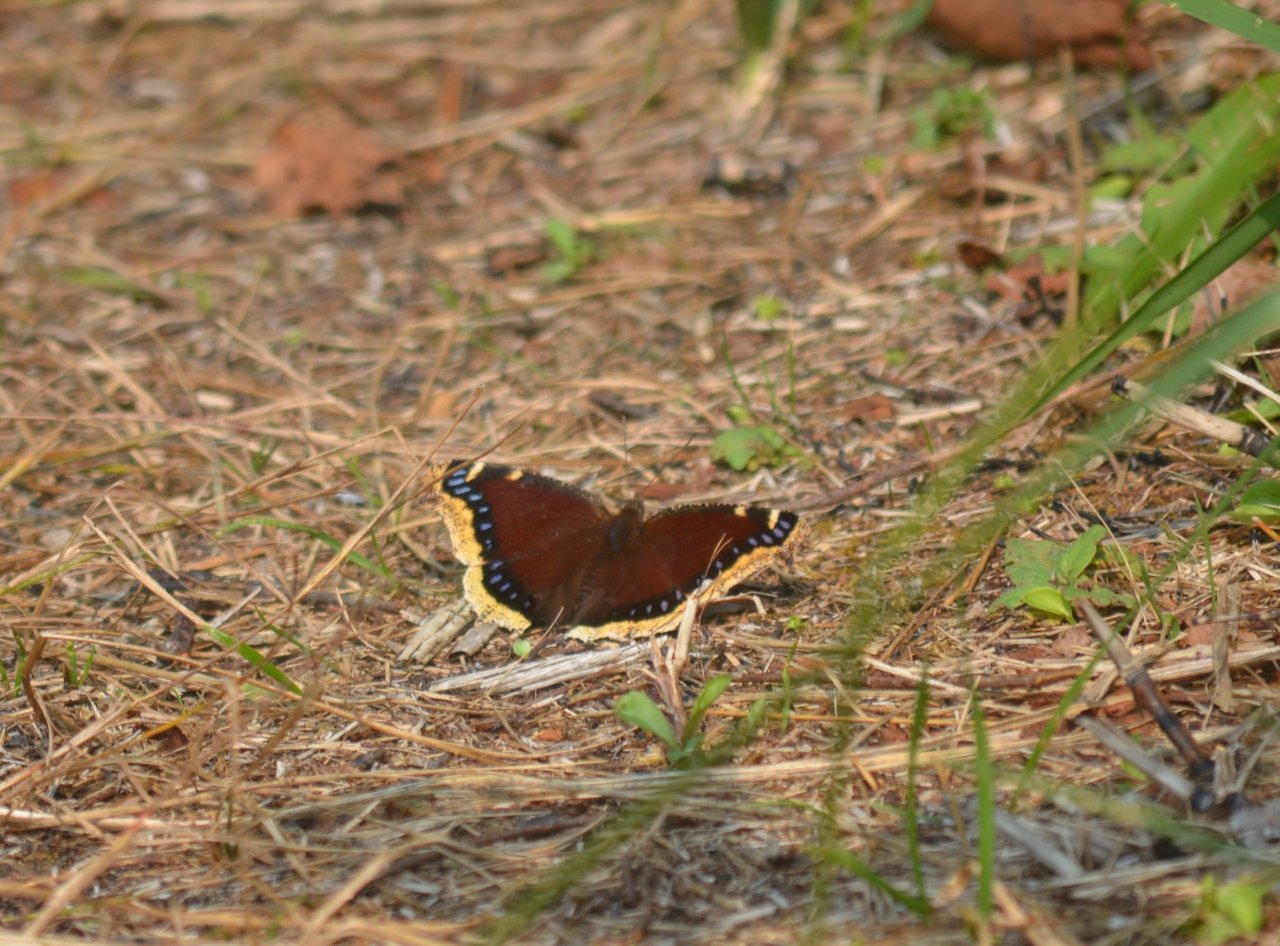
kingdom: Animalia
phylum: Arthropoda
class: Insecta
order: Lepidoptera
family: Nymphalidae
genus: Nymphalis
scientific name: Nymphalis antiopa
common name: Mourning Cloak
